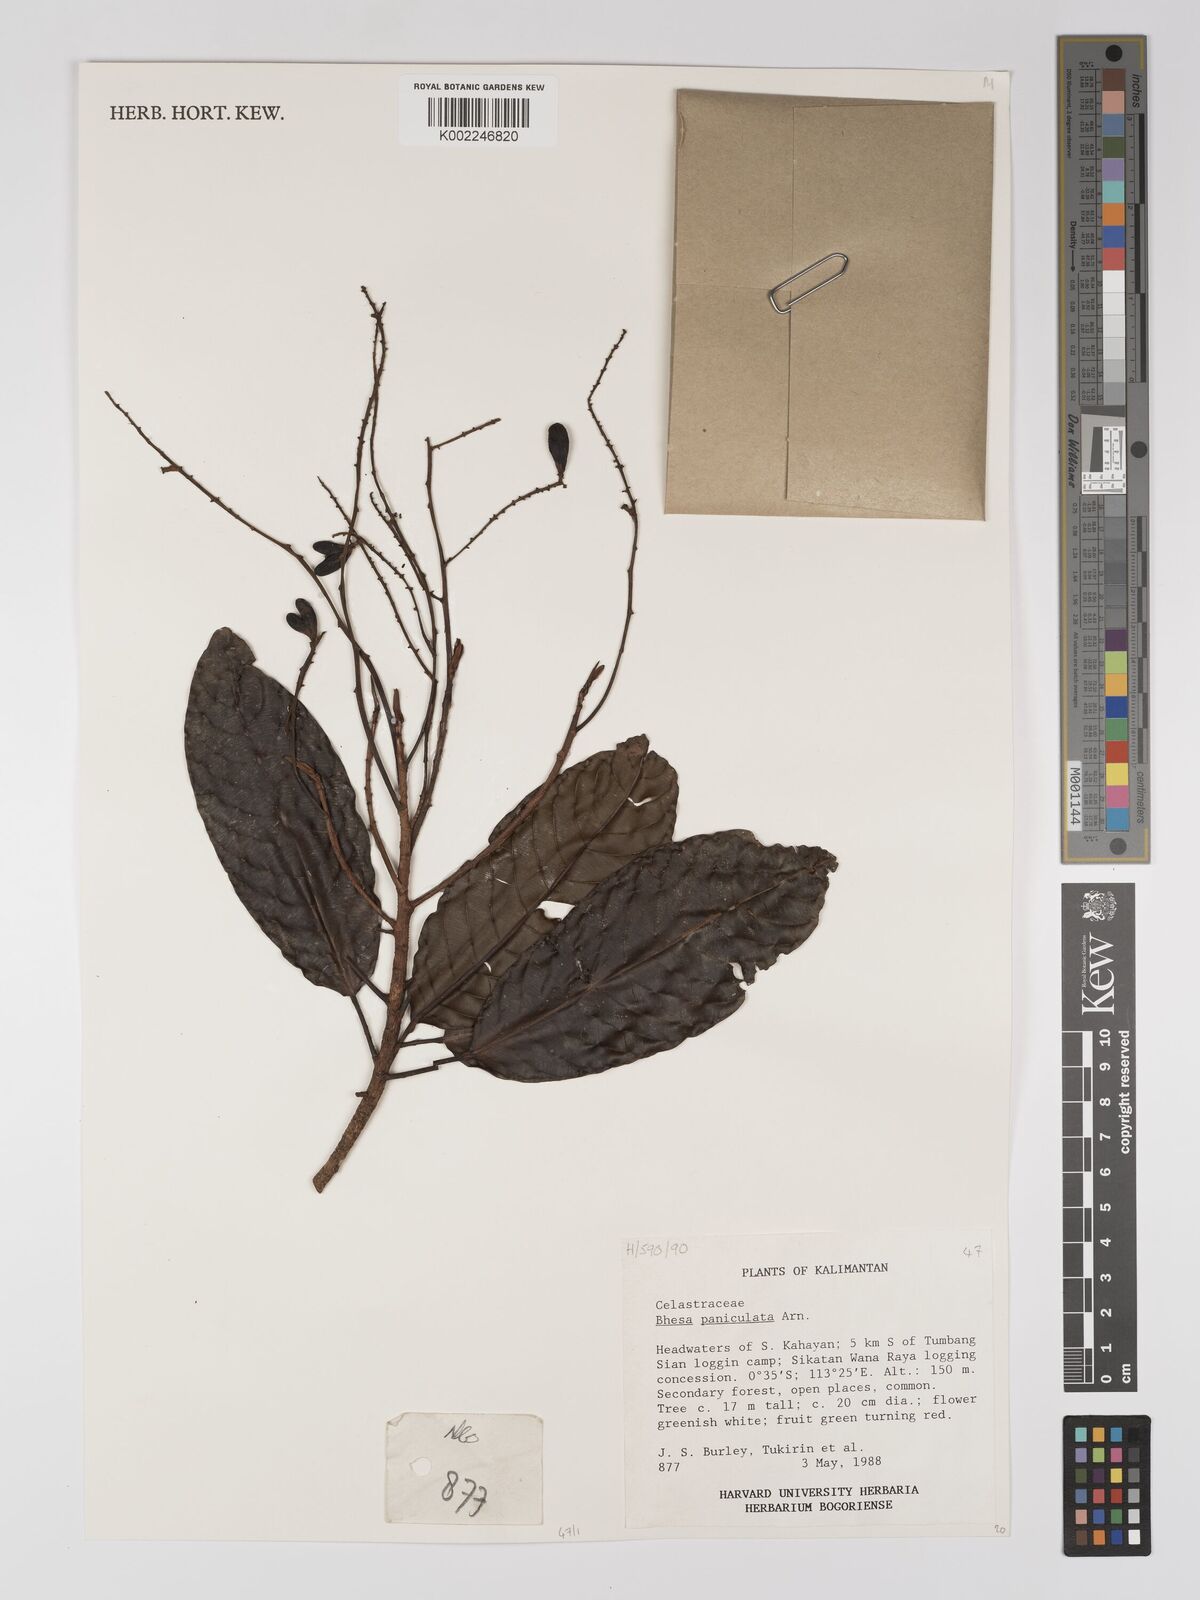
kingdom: Plantae
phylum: Tracheophyta
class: Magnoliopsida
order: Malpighiales
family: Centroplacaceae
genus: Bhesa
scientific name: Bhesa paniculata
